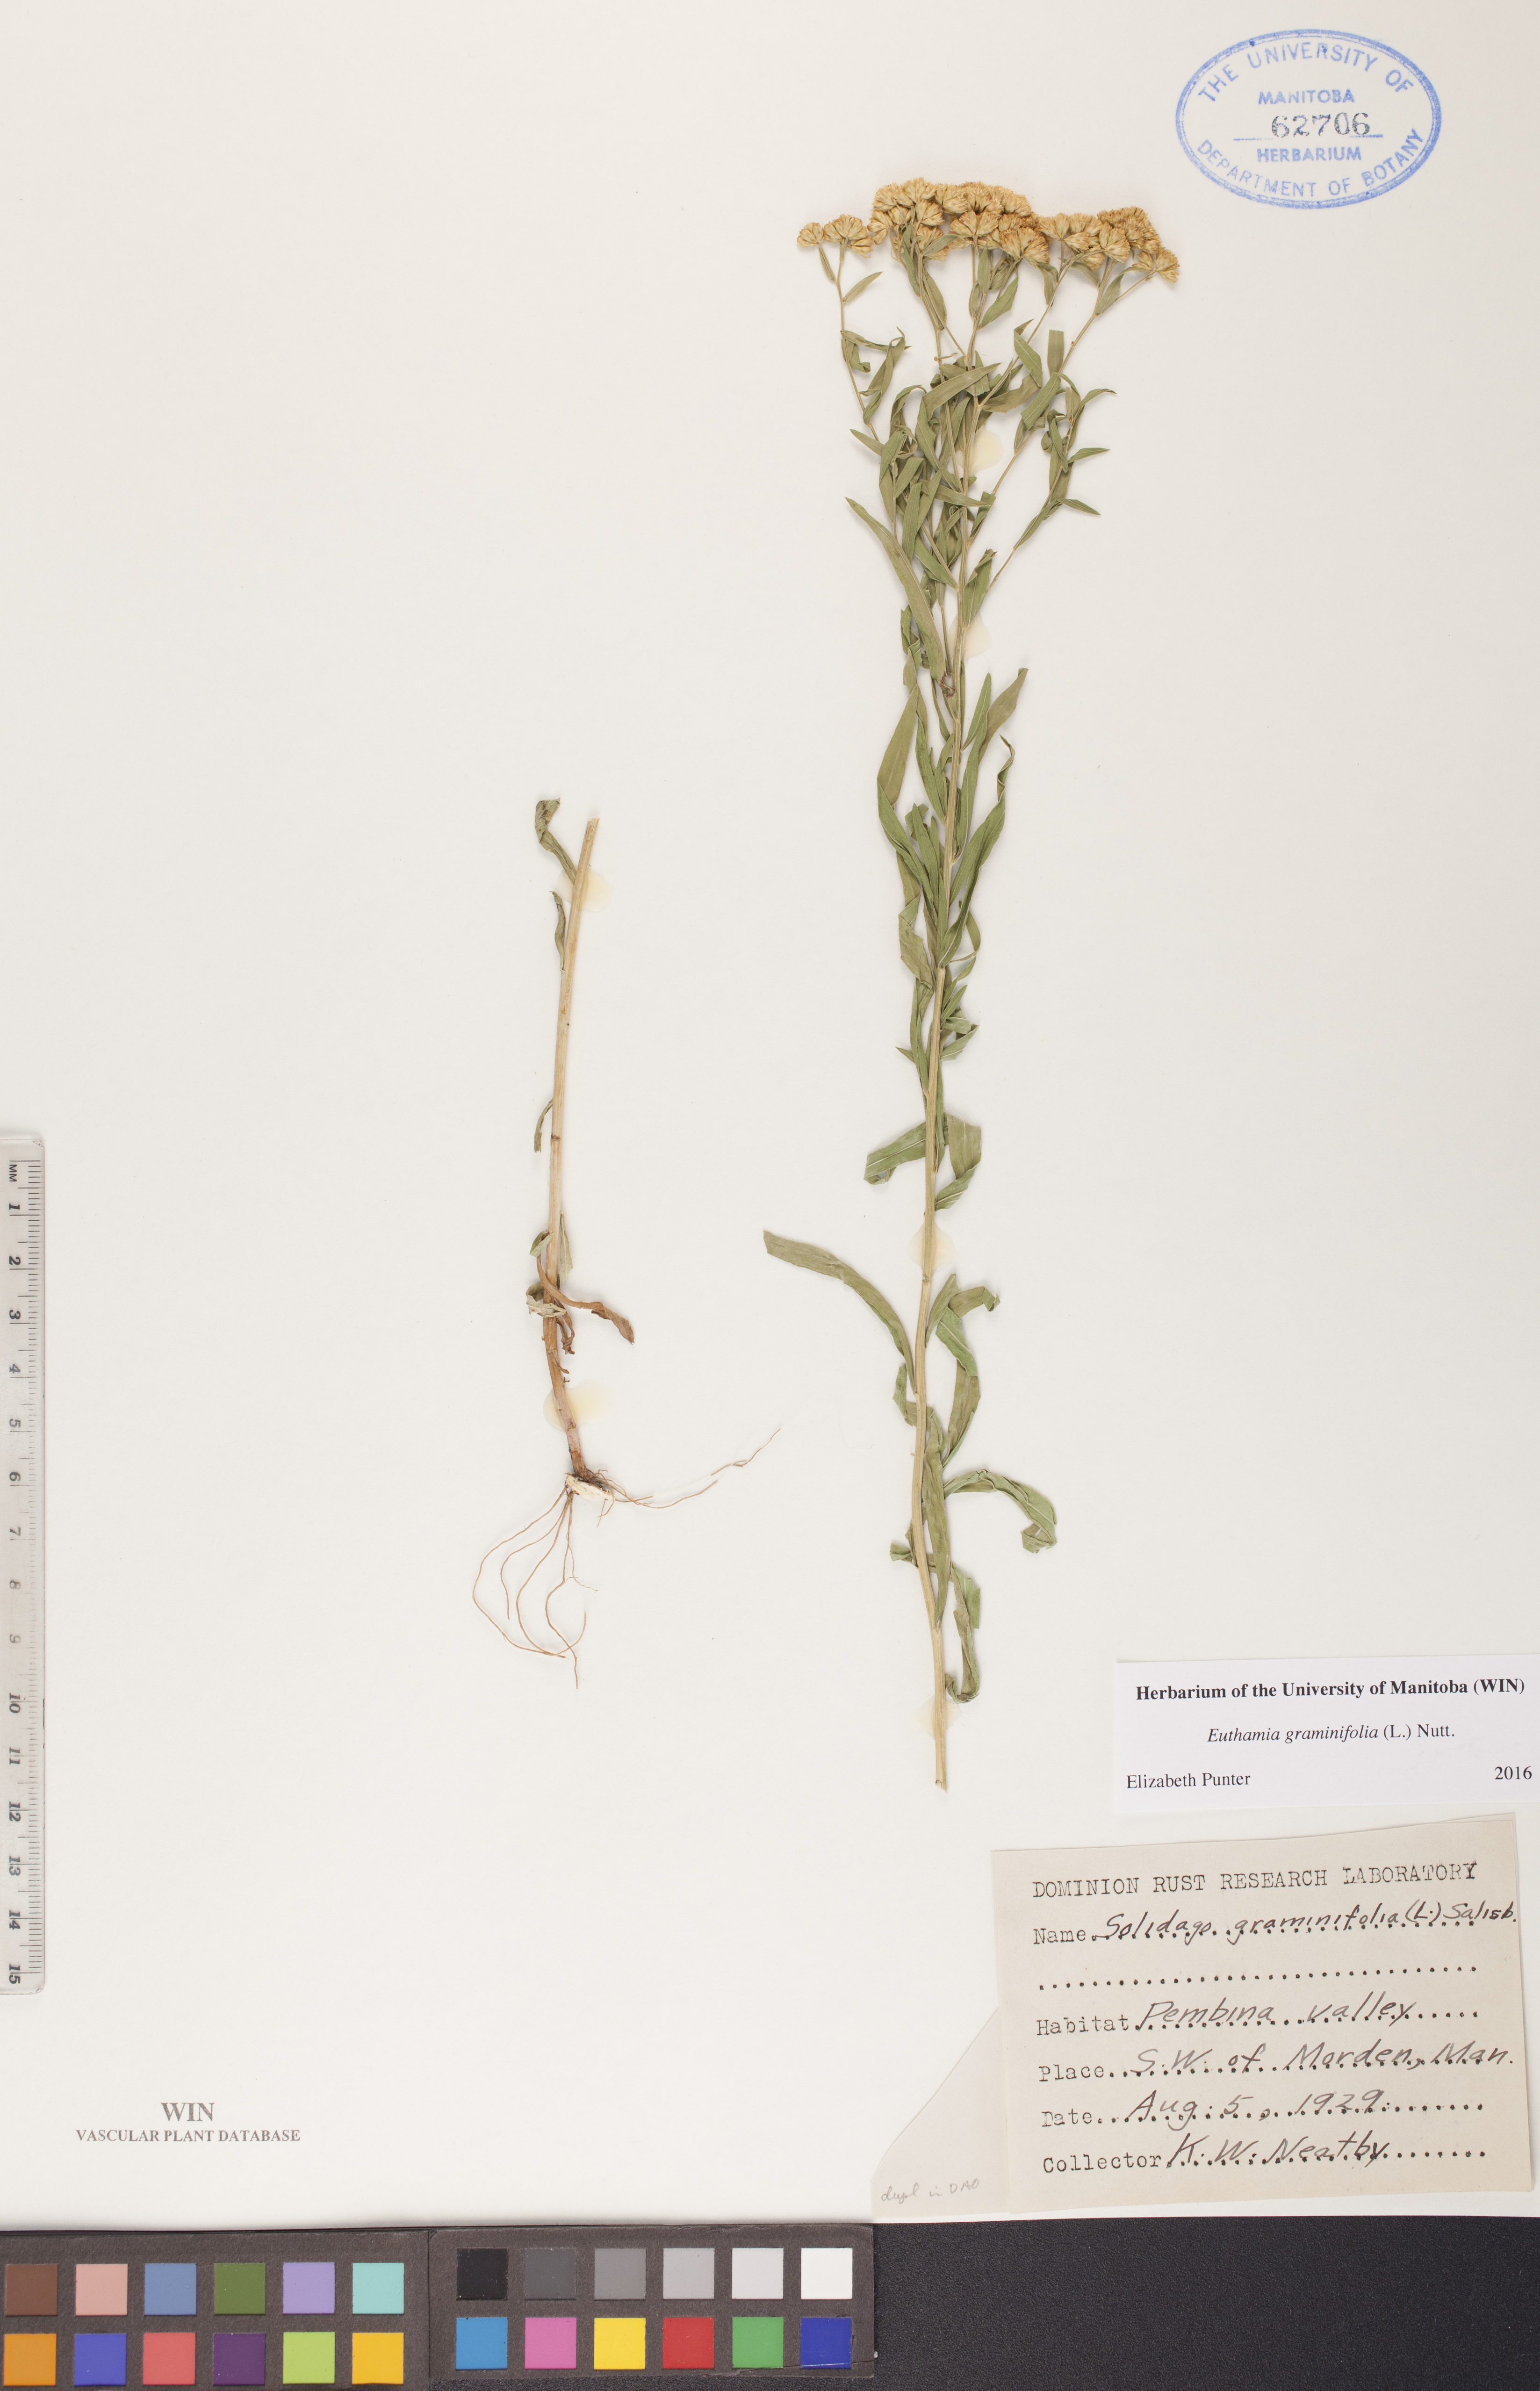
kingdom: Plantae
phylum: Tracheophyta
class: Magnoliopsida
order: Asterales
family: Asteraceae
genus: Euthamia
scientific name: Euthamia graminifolia
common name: Common goldentop
